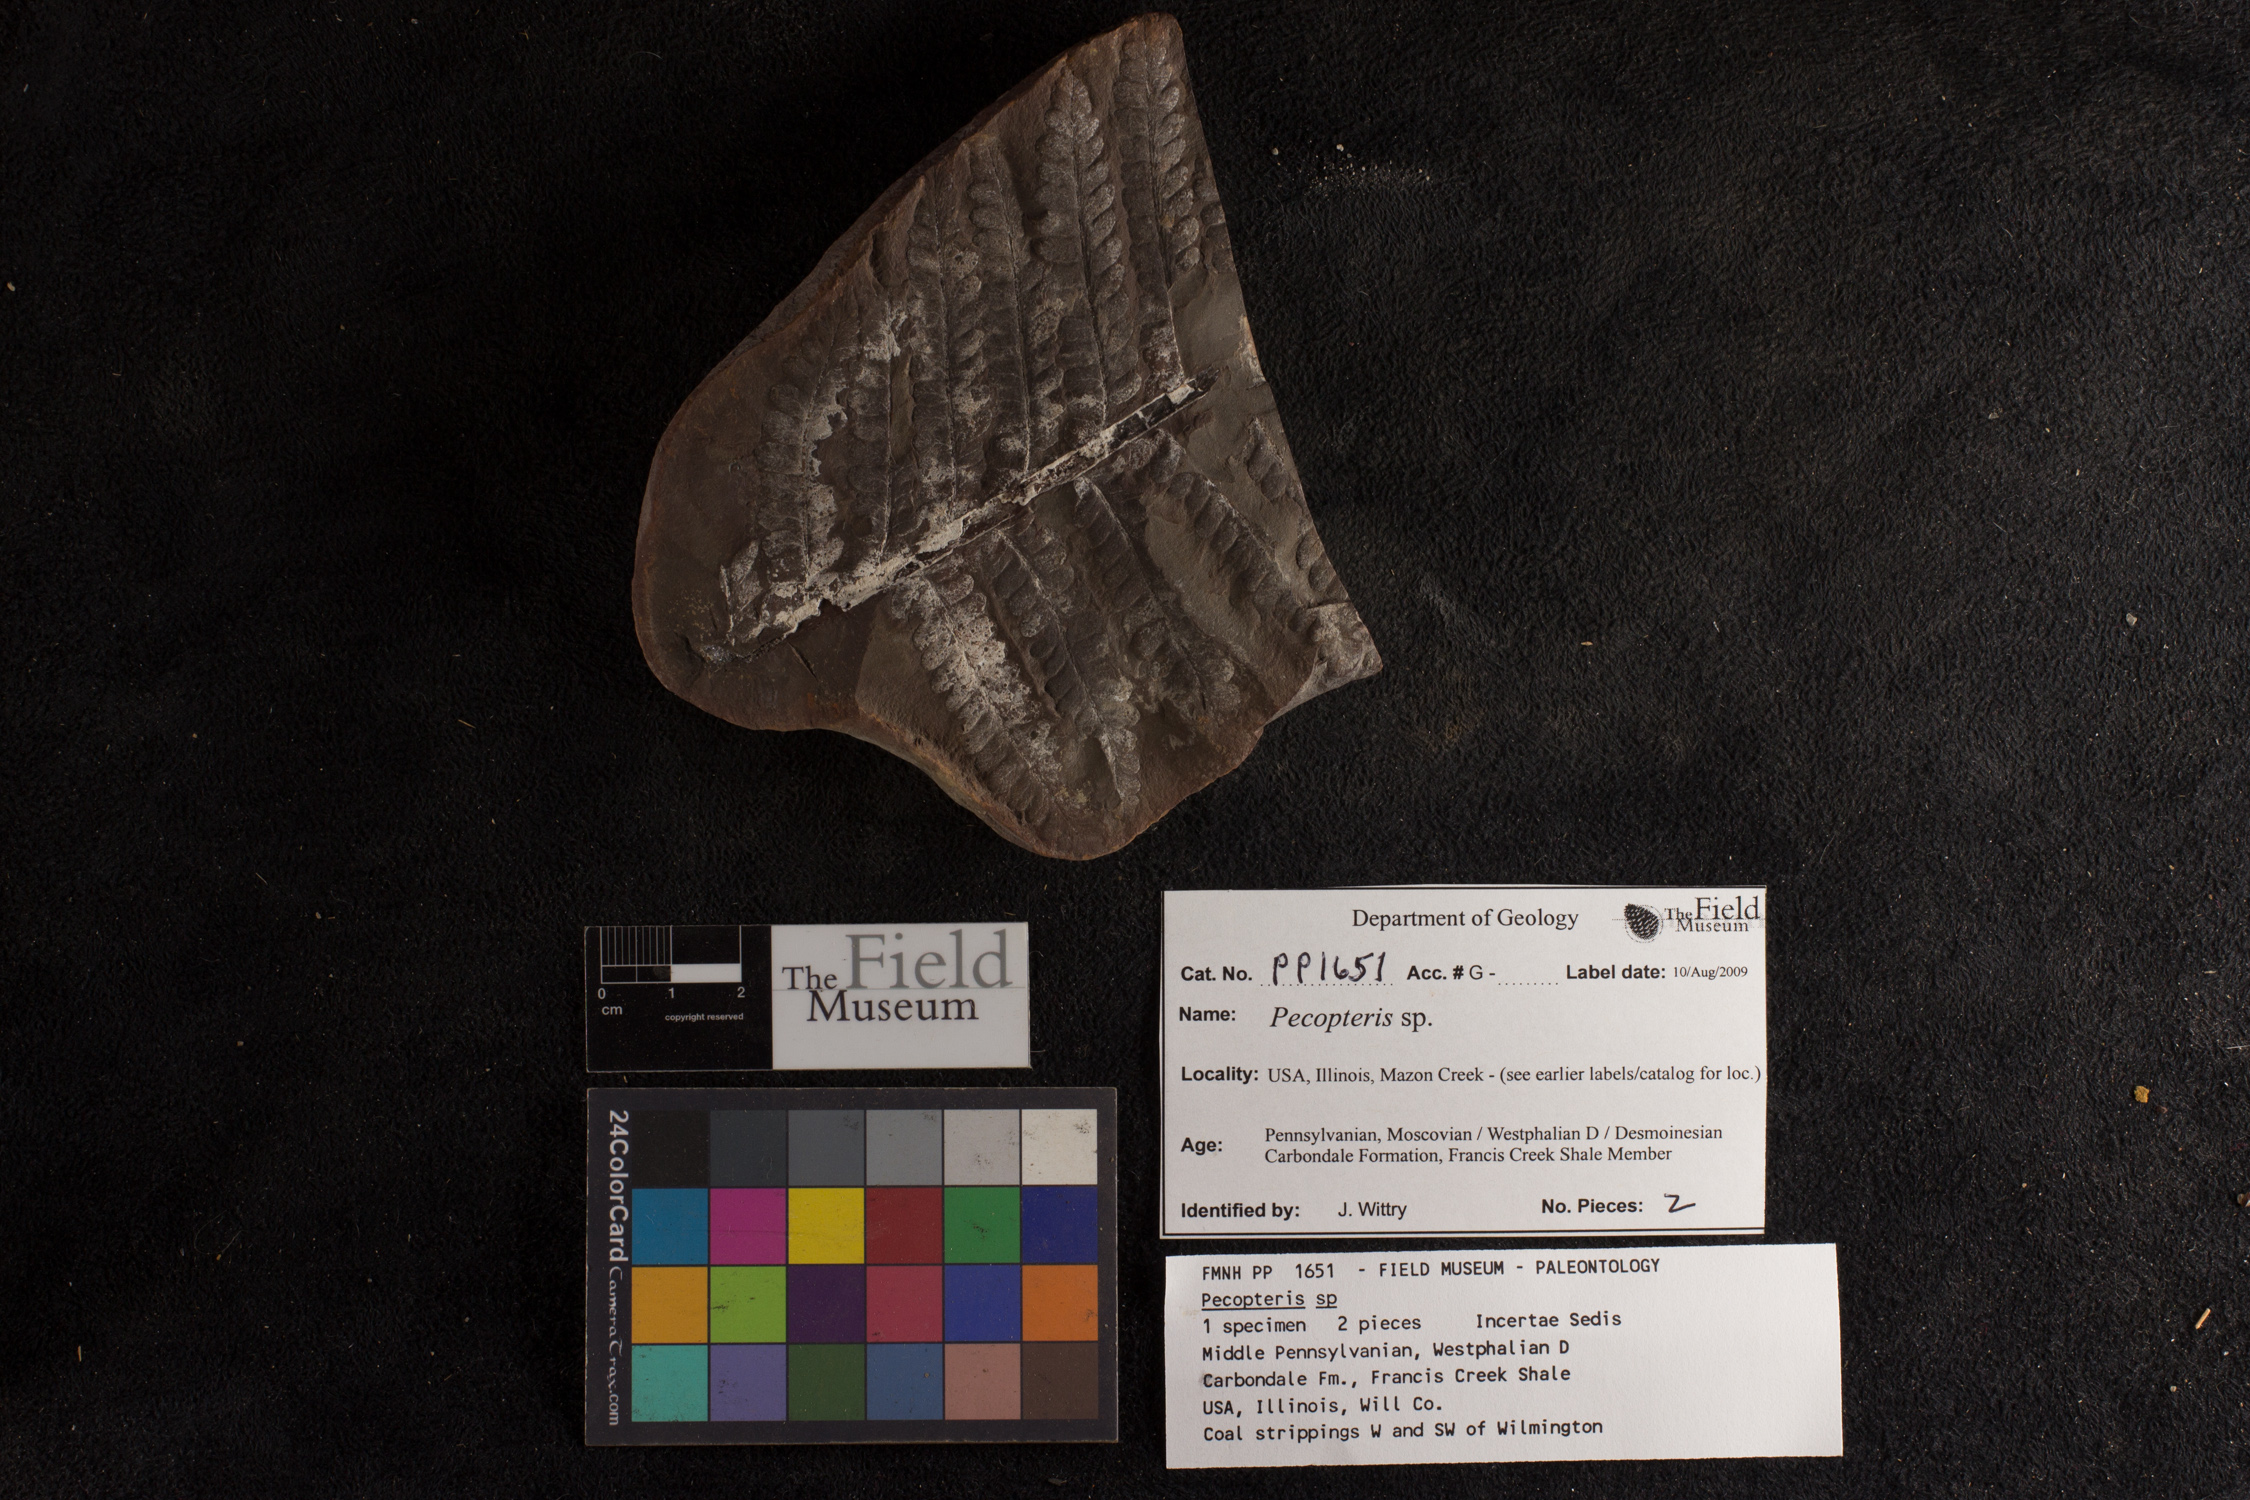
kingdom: Plantae
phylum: Tracheophyta
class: Polypodiopsida
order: Marattiales
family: Asterothecaceae
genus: Pecopteris
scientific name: Pecopteris
